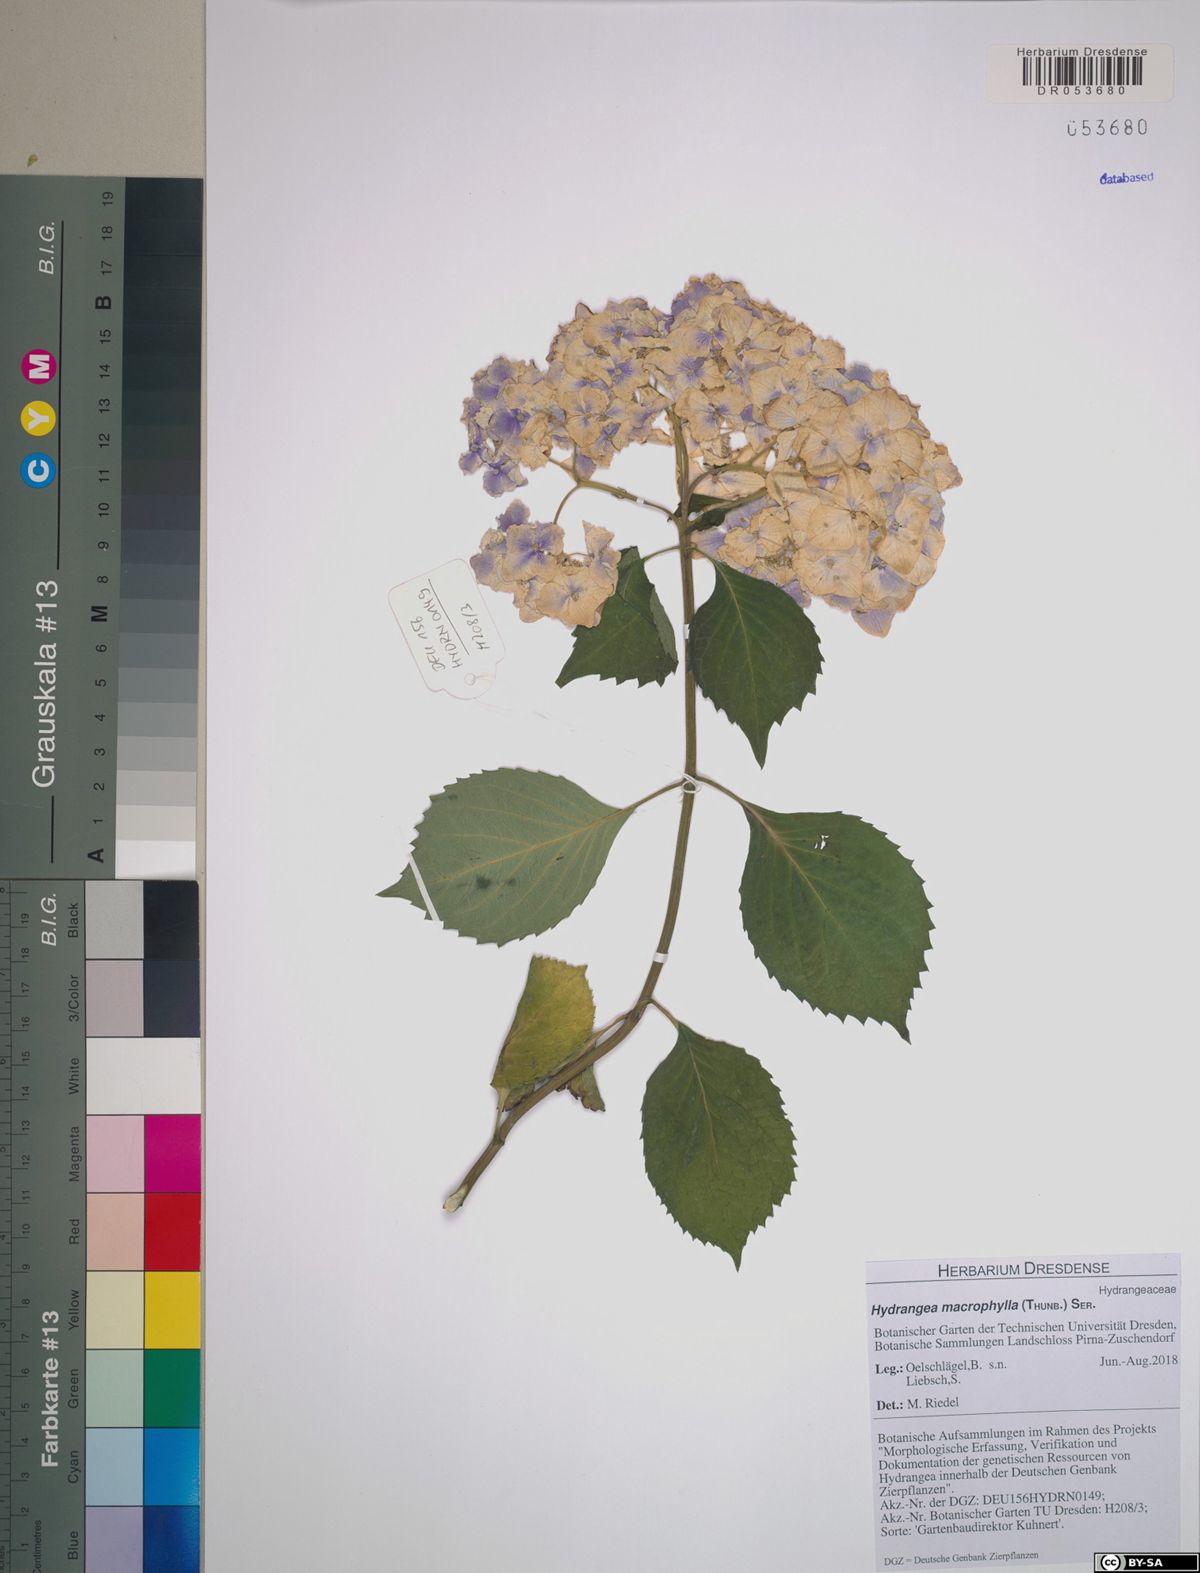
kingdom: Plantae
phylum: Tracheophyta
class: Magnoliopsida
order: Cornales
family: Hydrangeaceae
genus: Hydrangea
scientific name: Hydrangea macrophylla
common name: Hydrangea
